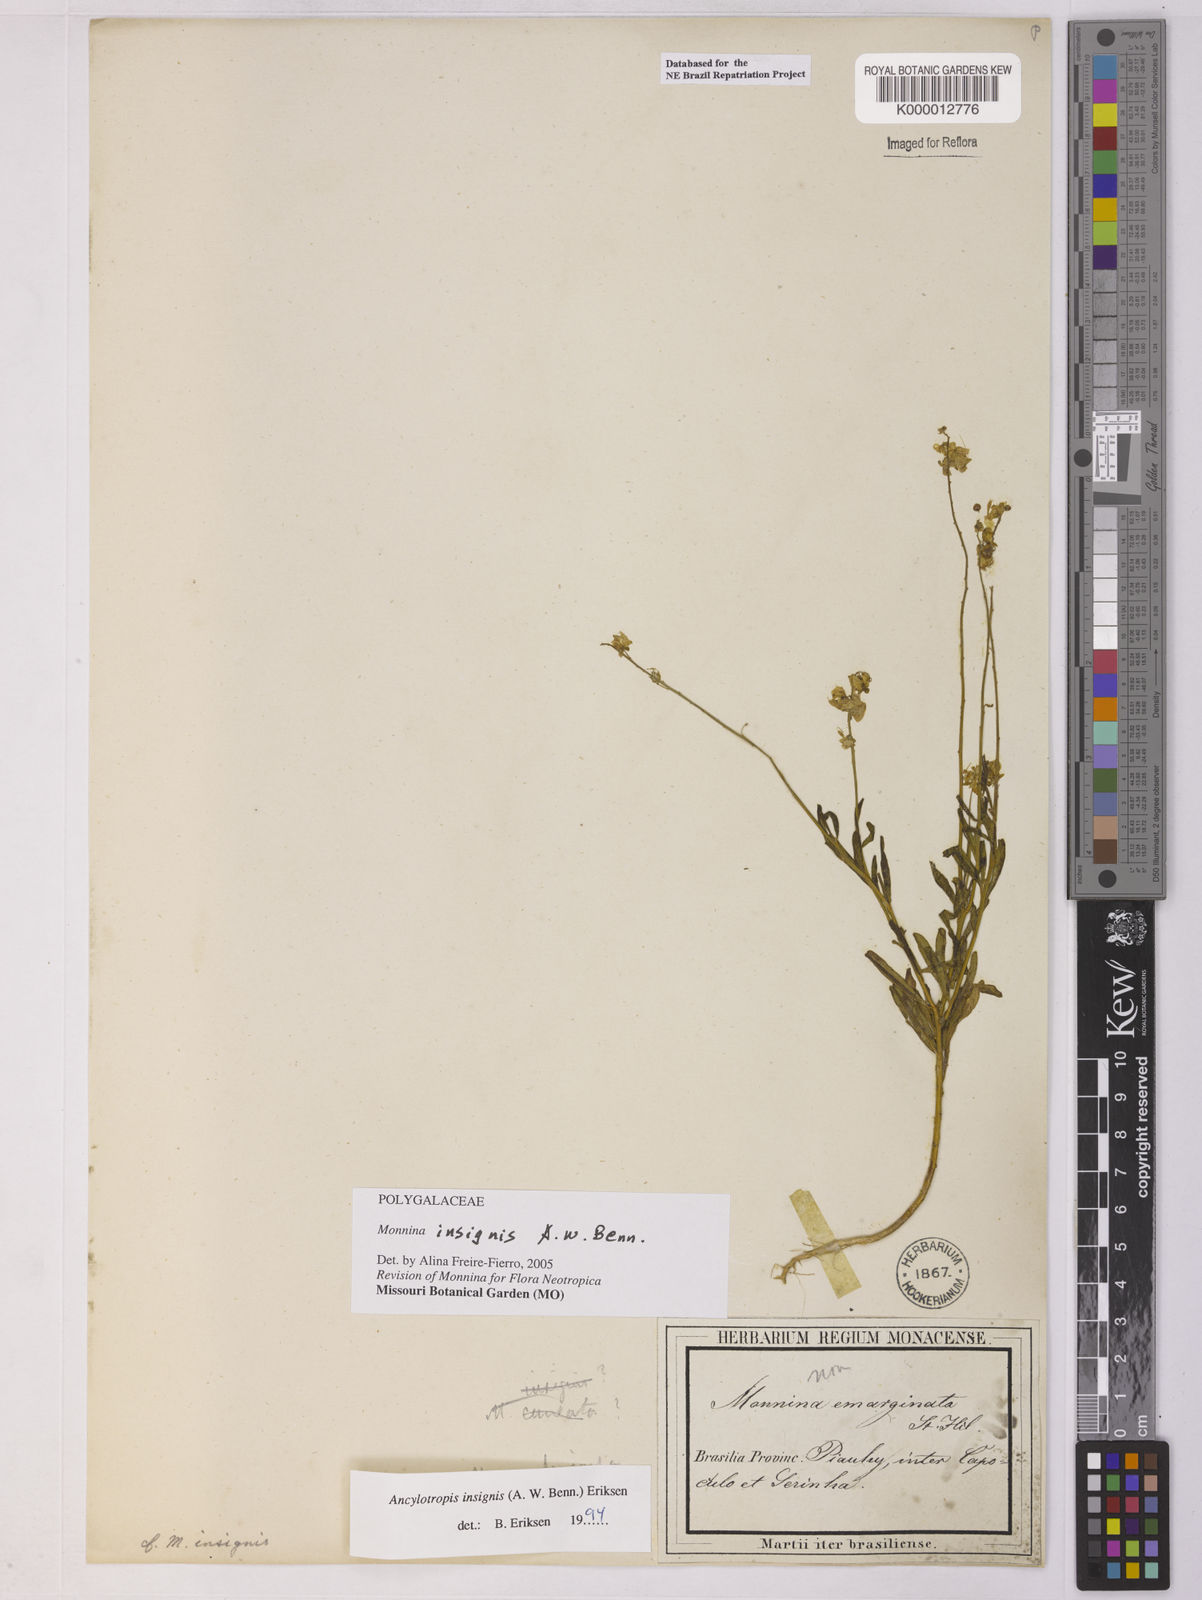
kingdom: Plantae
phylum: Tracheophyta
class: Magnoliopsida
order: Fabales
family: Polygalaceae
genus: Ancylotropis
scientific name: Ancylotropis insignis
